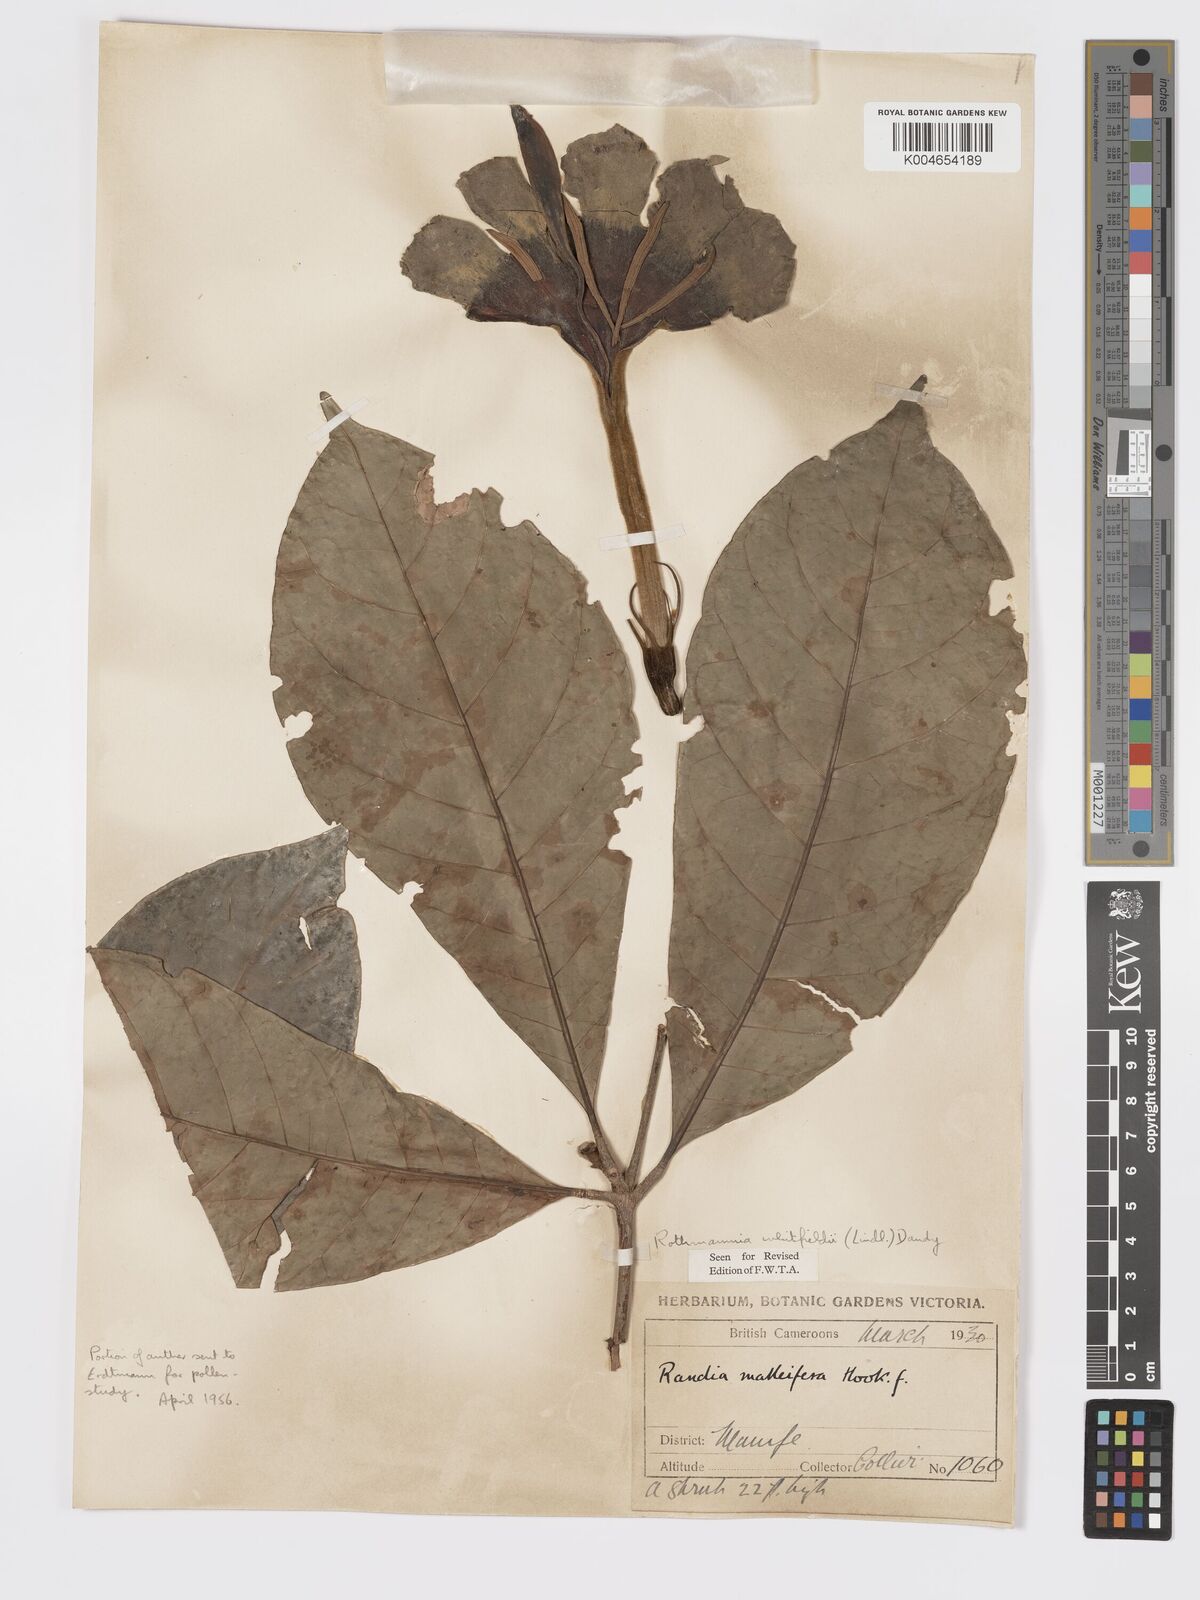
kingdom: Plantae
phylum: Tracheophyta
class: Magnoliopsida
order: Gentianales
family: Rubiaceae
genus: Rothmannia
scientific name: Rothmannia whitfieldii
